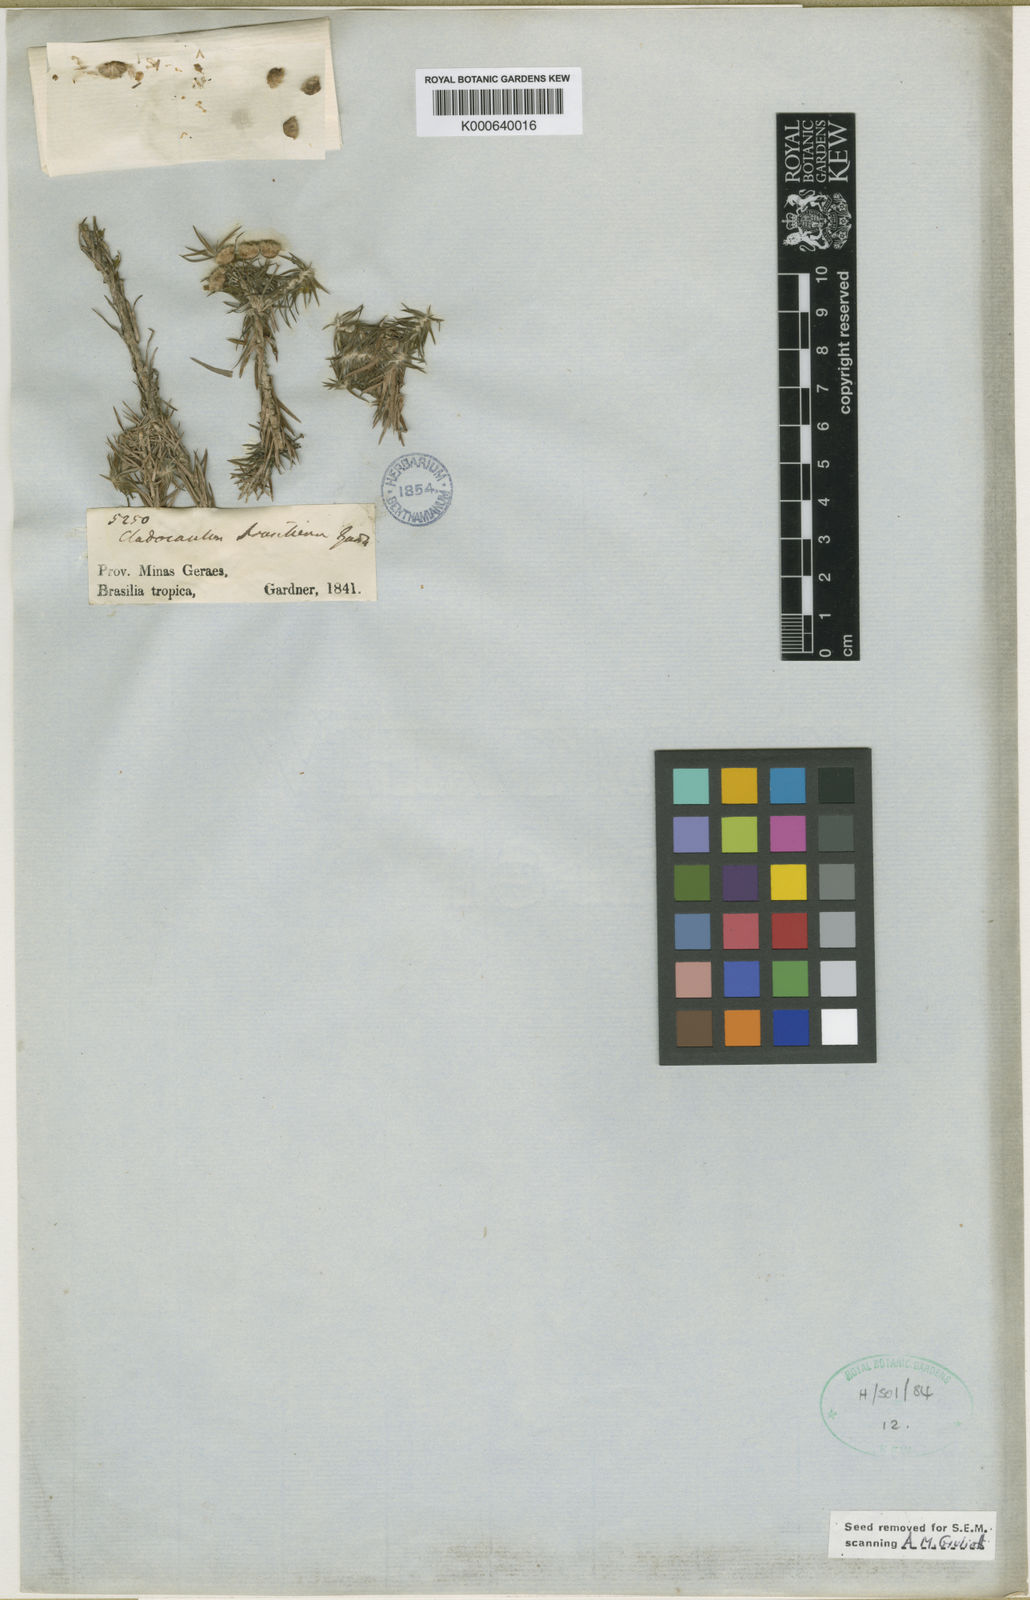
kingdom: Plantae
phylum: Tracheophyta
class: Liliopsida
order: Poales
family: Eriocaulaceae
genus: Paepalanthus
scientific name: Paepalanthus gardnerianus
